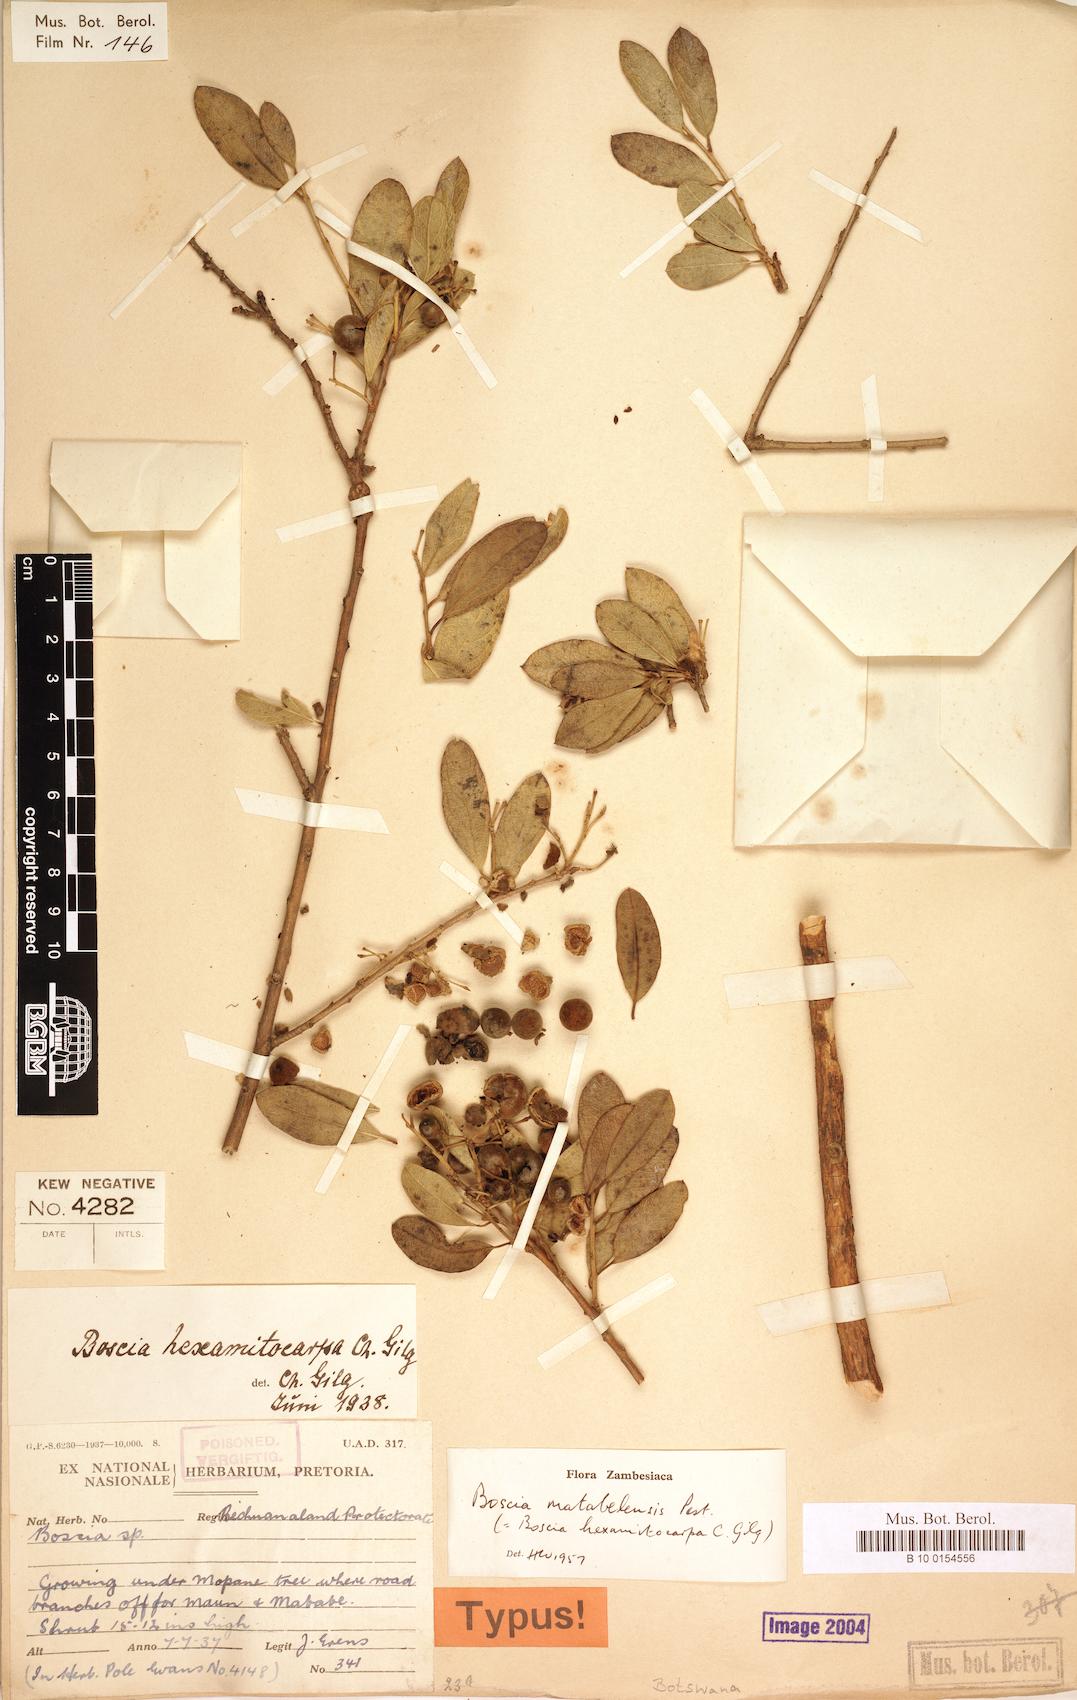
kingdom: Plantae
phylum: Tracheophyta
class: Magnoliopsida
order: Brassicales
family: Capparaceae
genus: Boscia
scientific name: Boscia matabelensis
